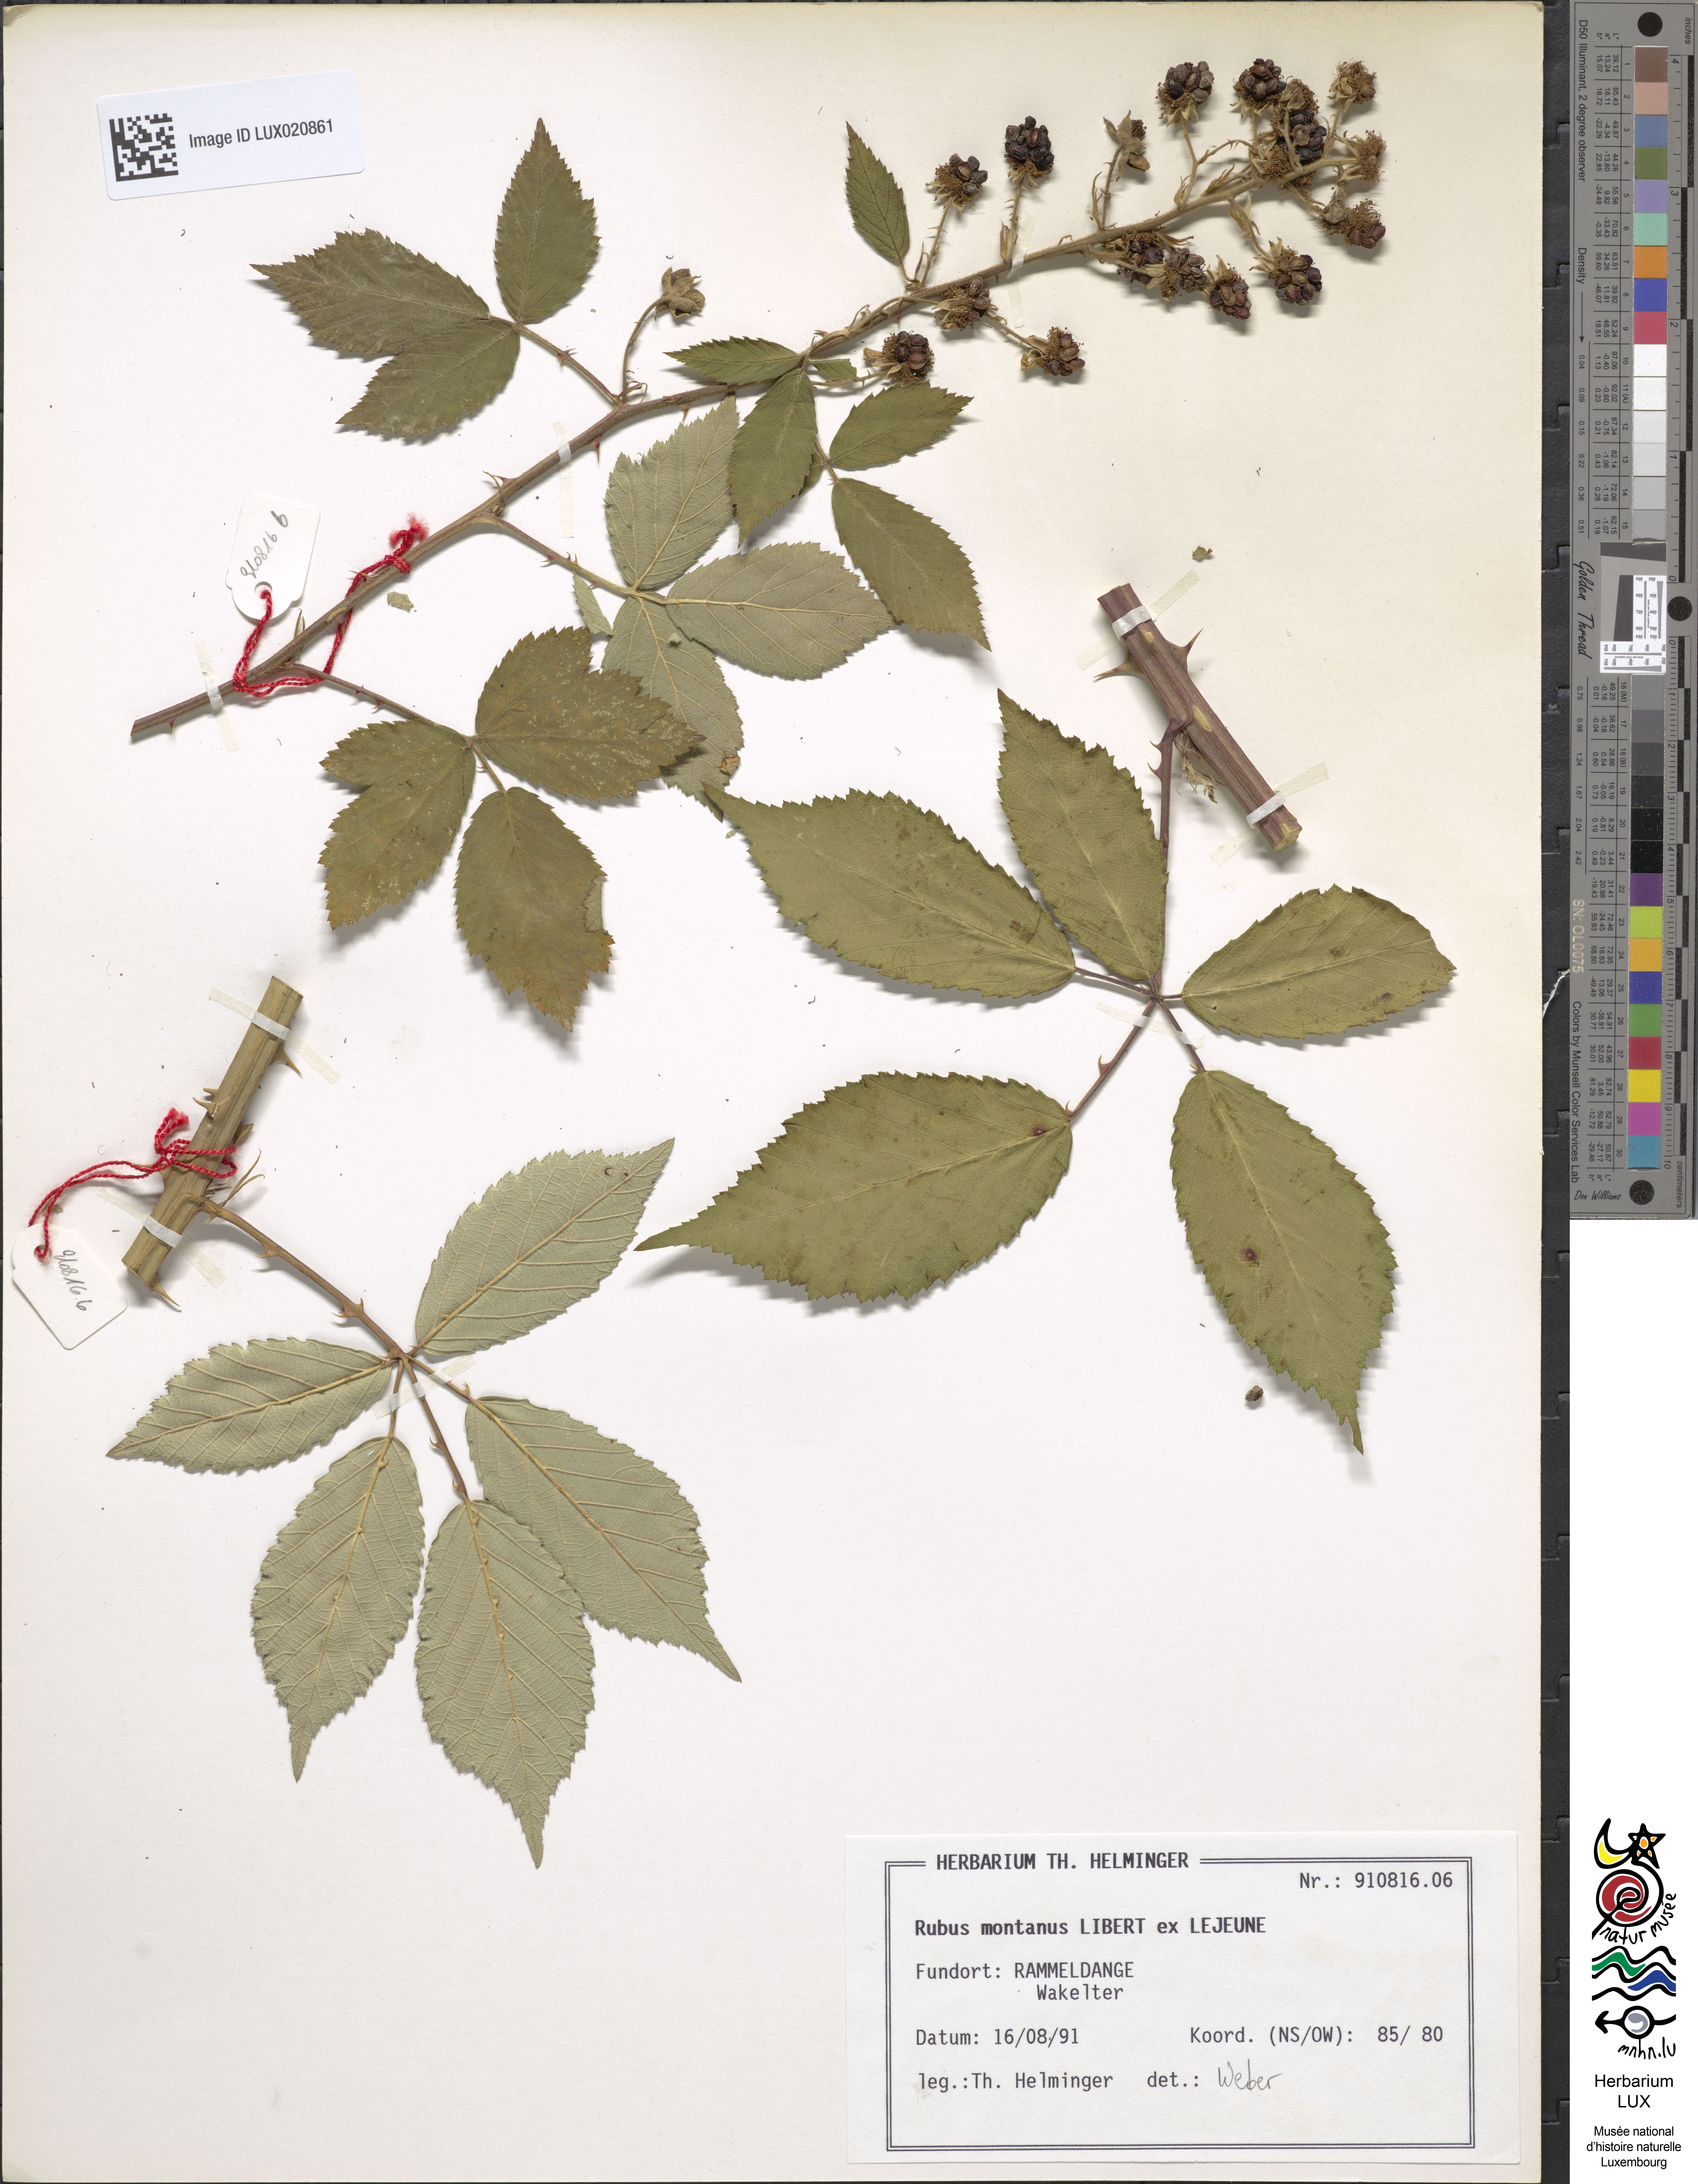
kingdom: Plantae
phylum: Tracheophyta
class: Magnoliopsida
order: Rosales
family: Rosaceae
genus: Rubus
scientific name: Rubus montanus
